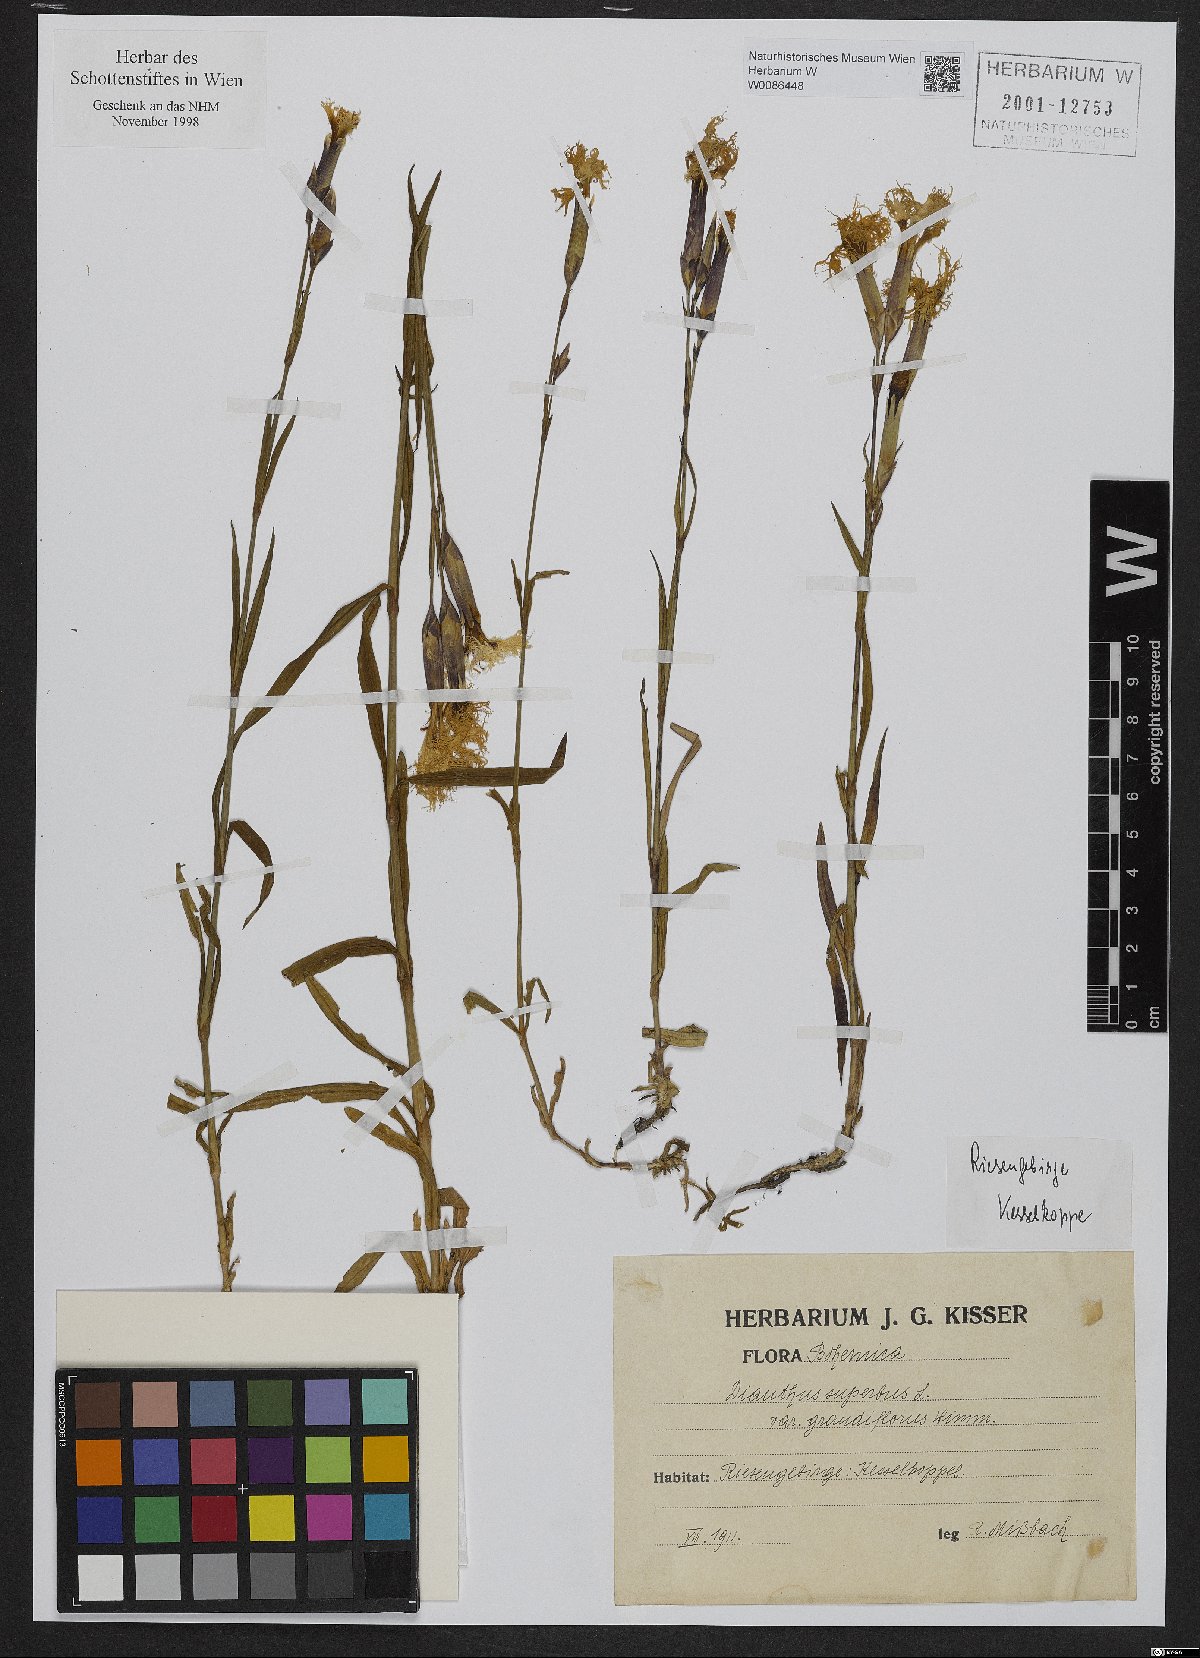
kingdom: Plantae
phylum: Tracheophyta
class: Magnoliopsida
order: Caryophyllales
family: Caryophyllaceae
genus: Dianthus
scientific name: Dianthus superbus
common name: Fringed pink
